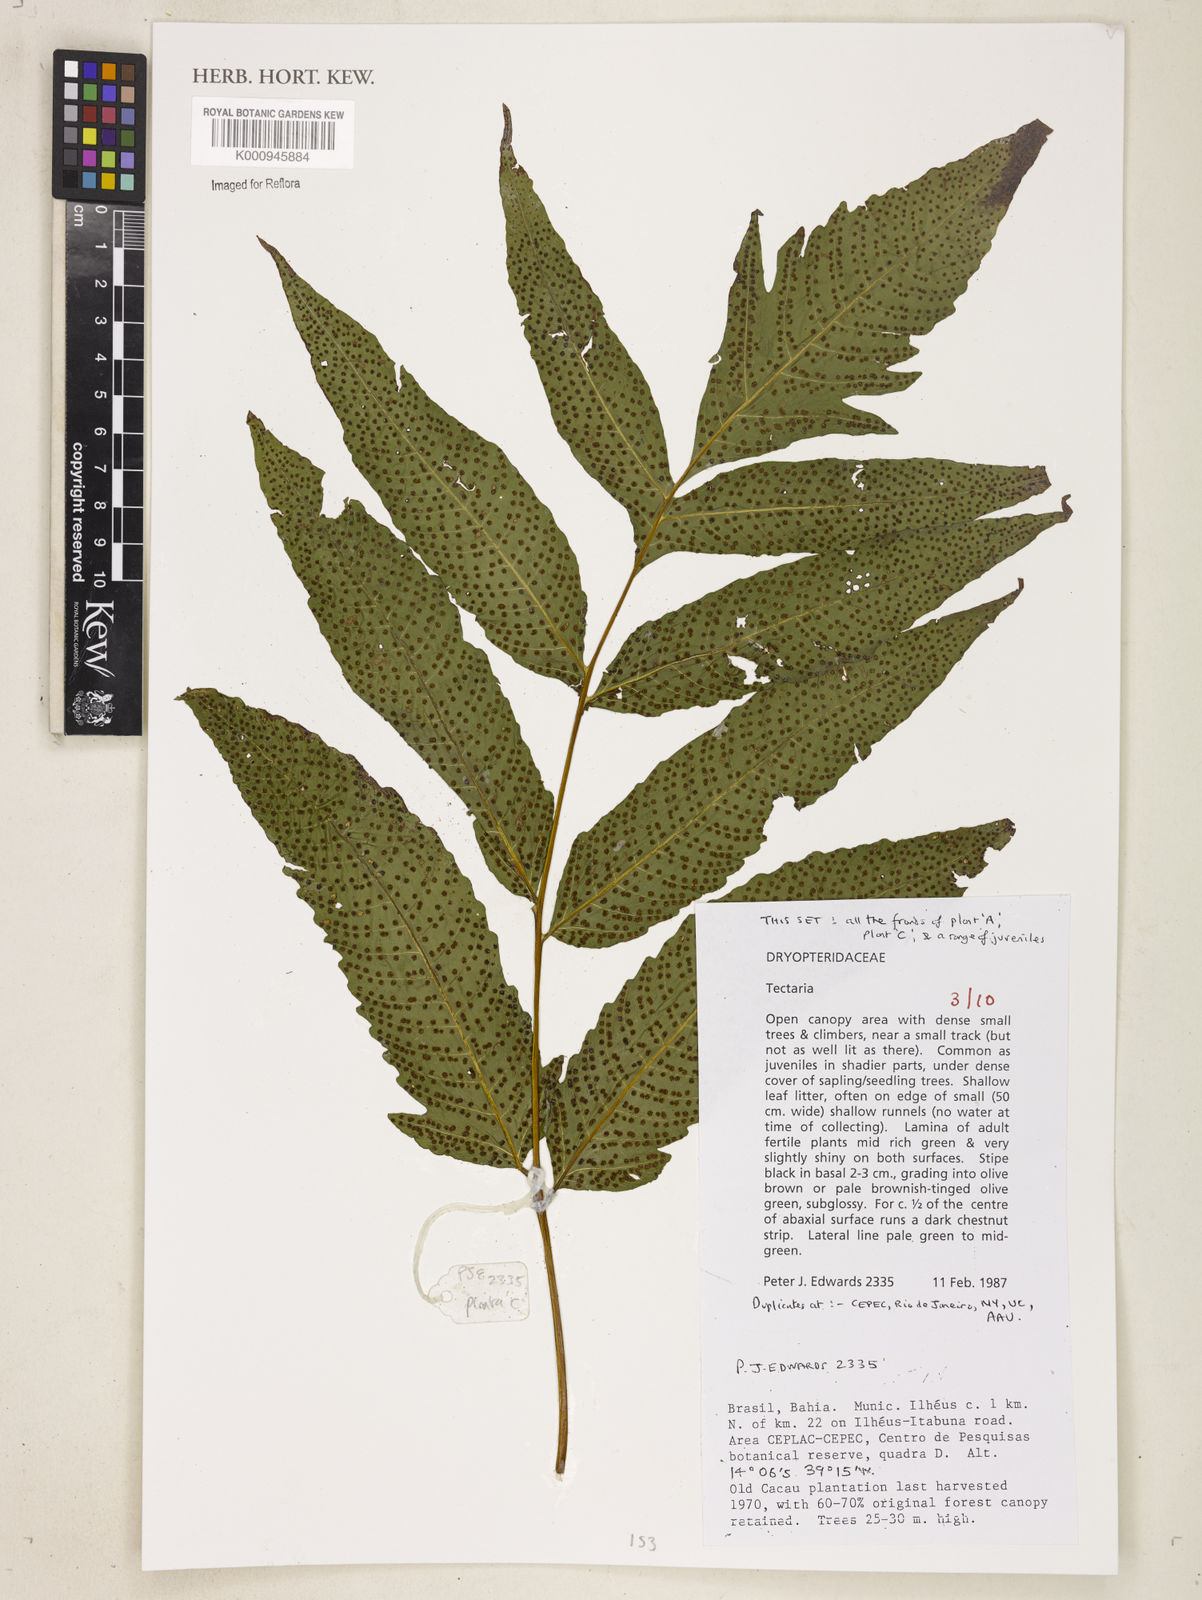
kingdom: Plantae
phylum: Tracheophyta
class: Polypodiopsida
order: Polypodiales
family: Tectariaceae
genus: Tectaria
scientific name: Tectaria
